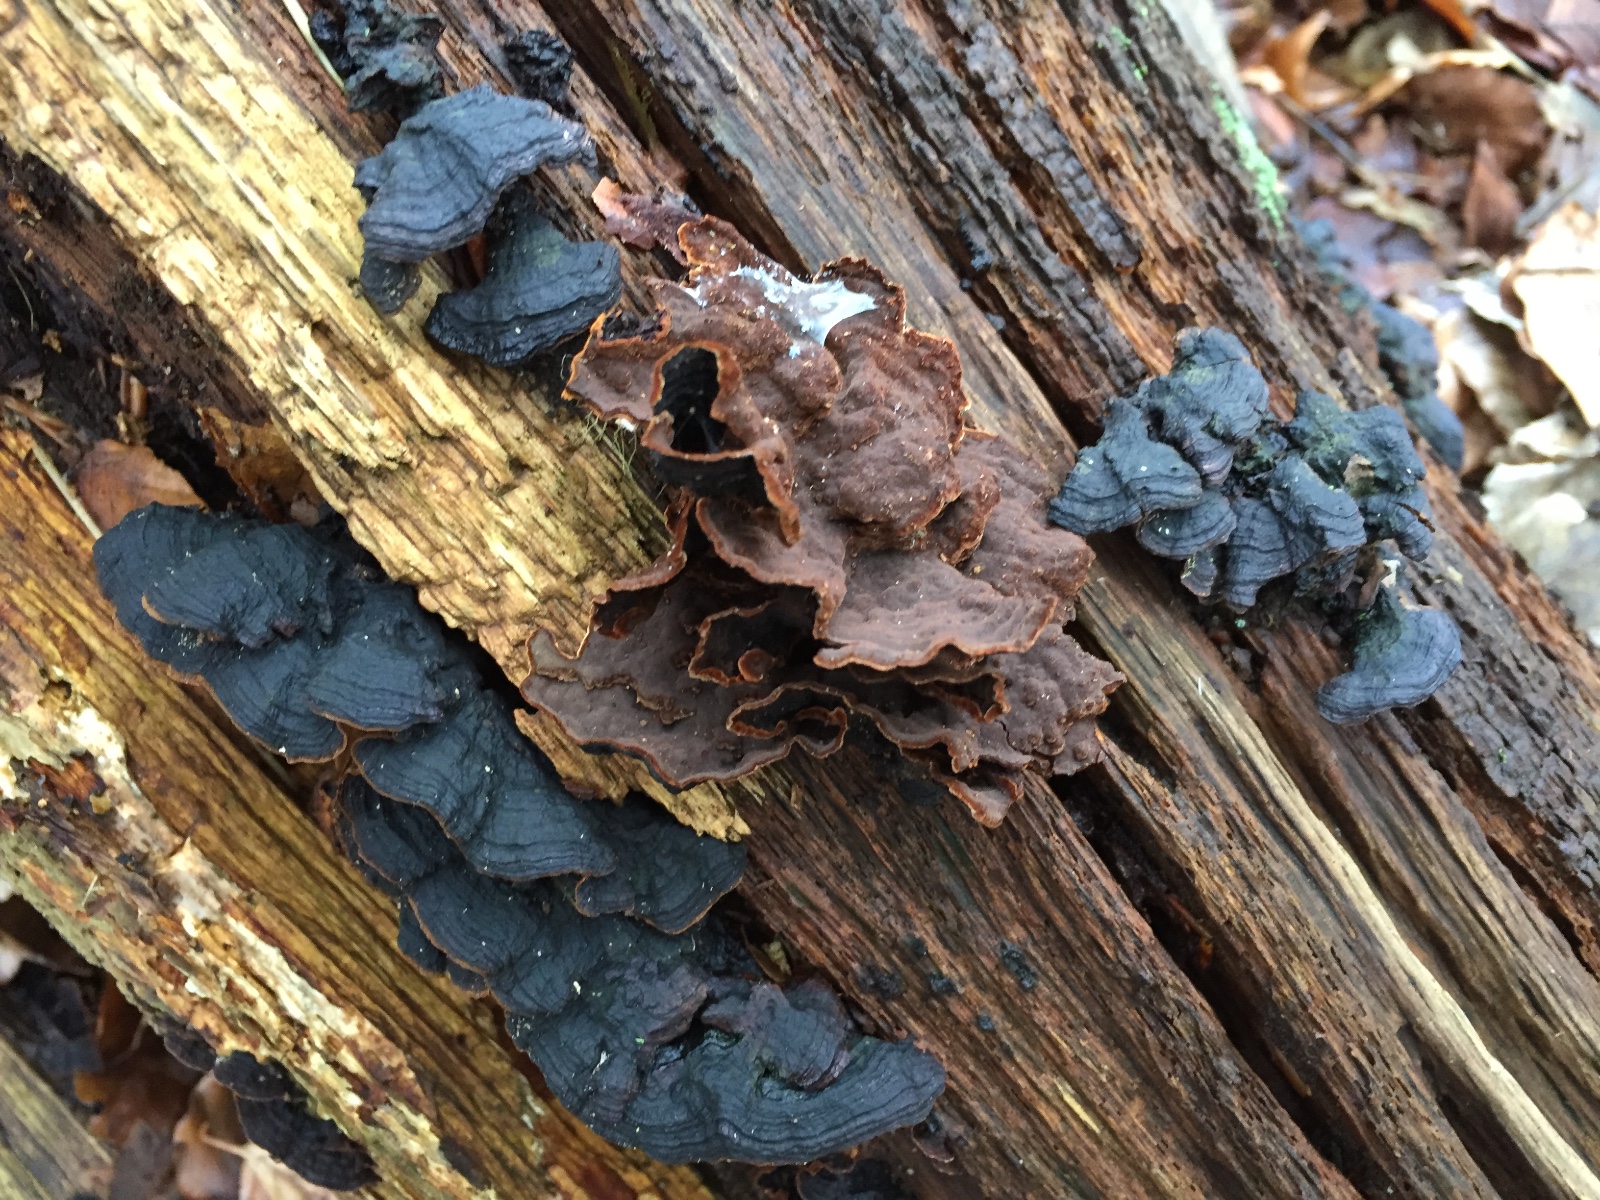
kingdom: Fungi
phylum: Basidiomycota
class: Agaricomycetes
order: Hymenochaetales
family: Hymenochaetaceae
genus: Hymenochaete
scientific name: Hymenochaete rubiginosa
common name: stiv ruslædersvamp
